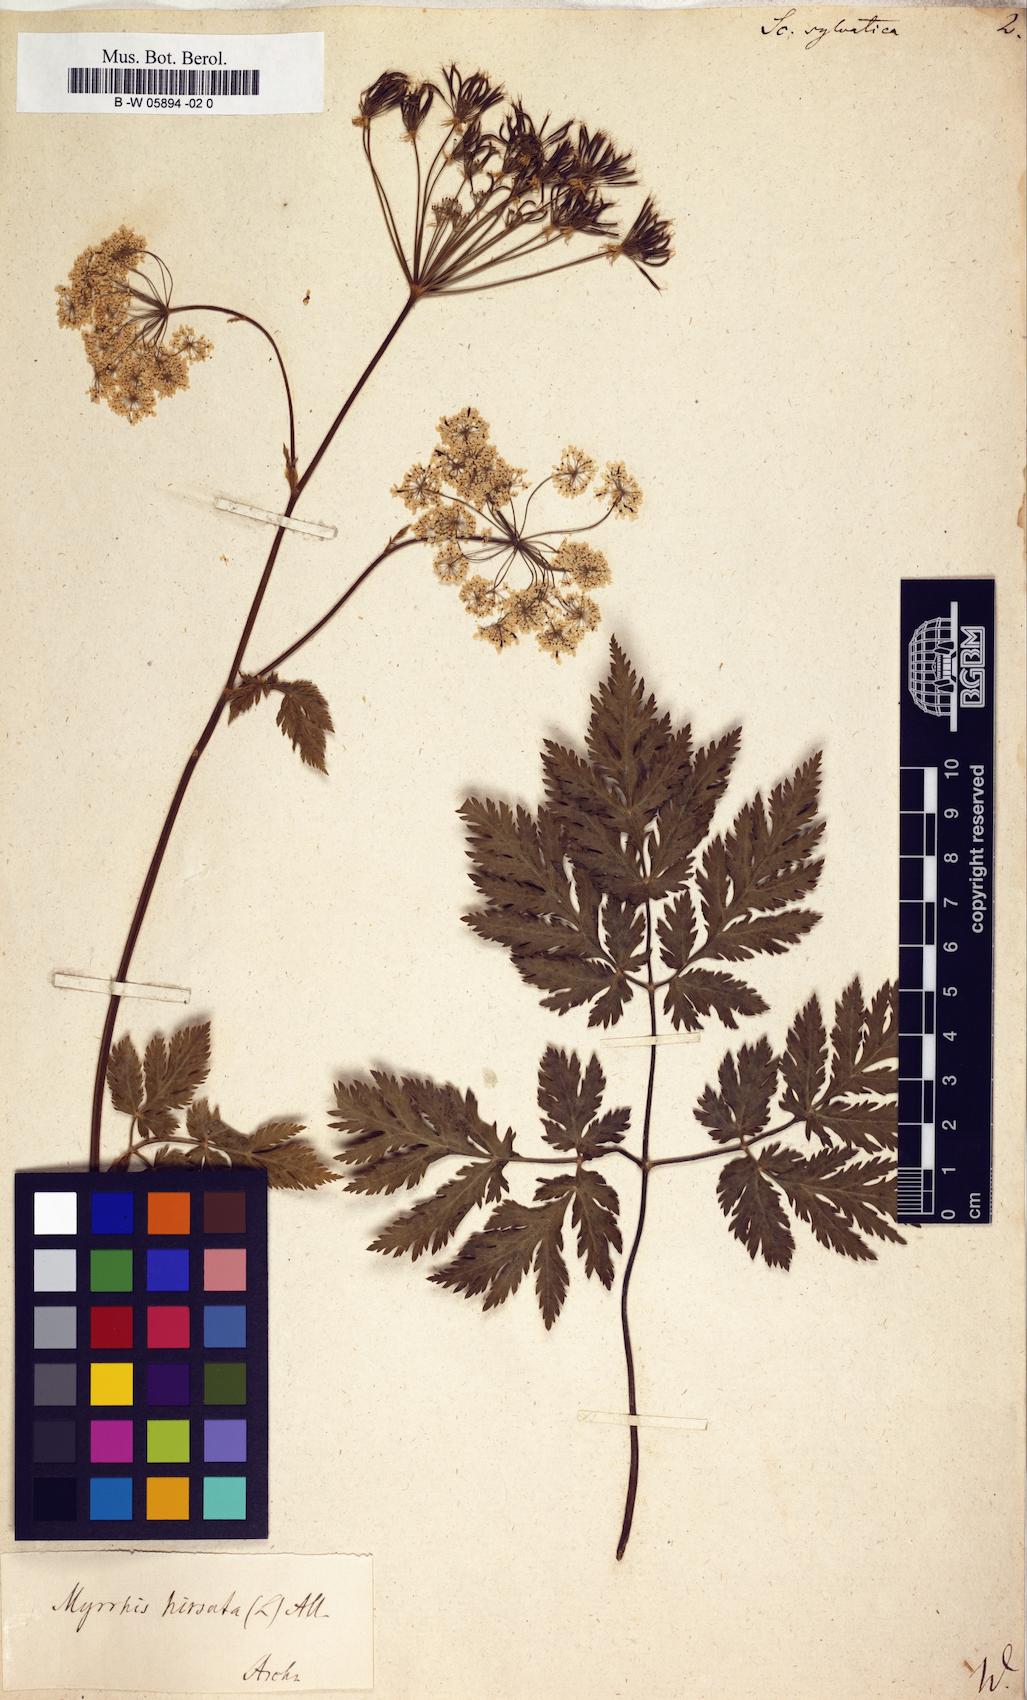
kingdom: Plantae
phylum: Tracheophyta
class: Magnoliopsida
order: Apiales
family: Apiaceae
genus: Scandix
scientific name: Scandix
